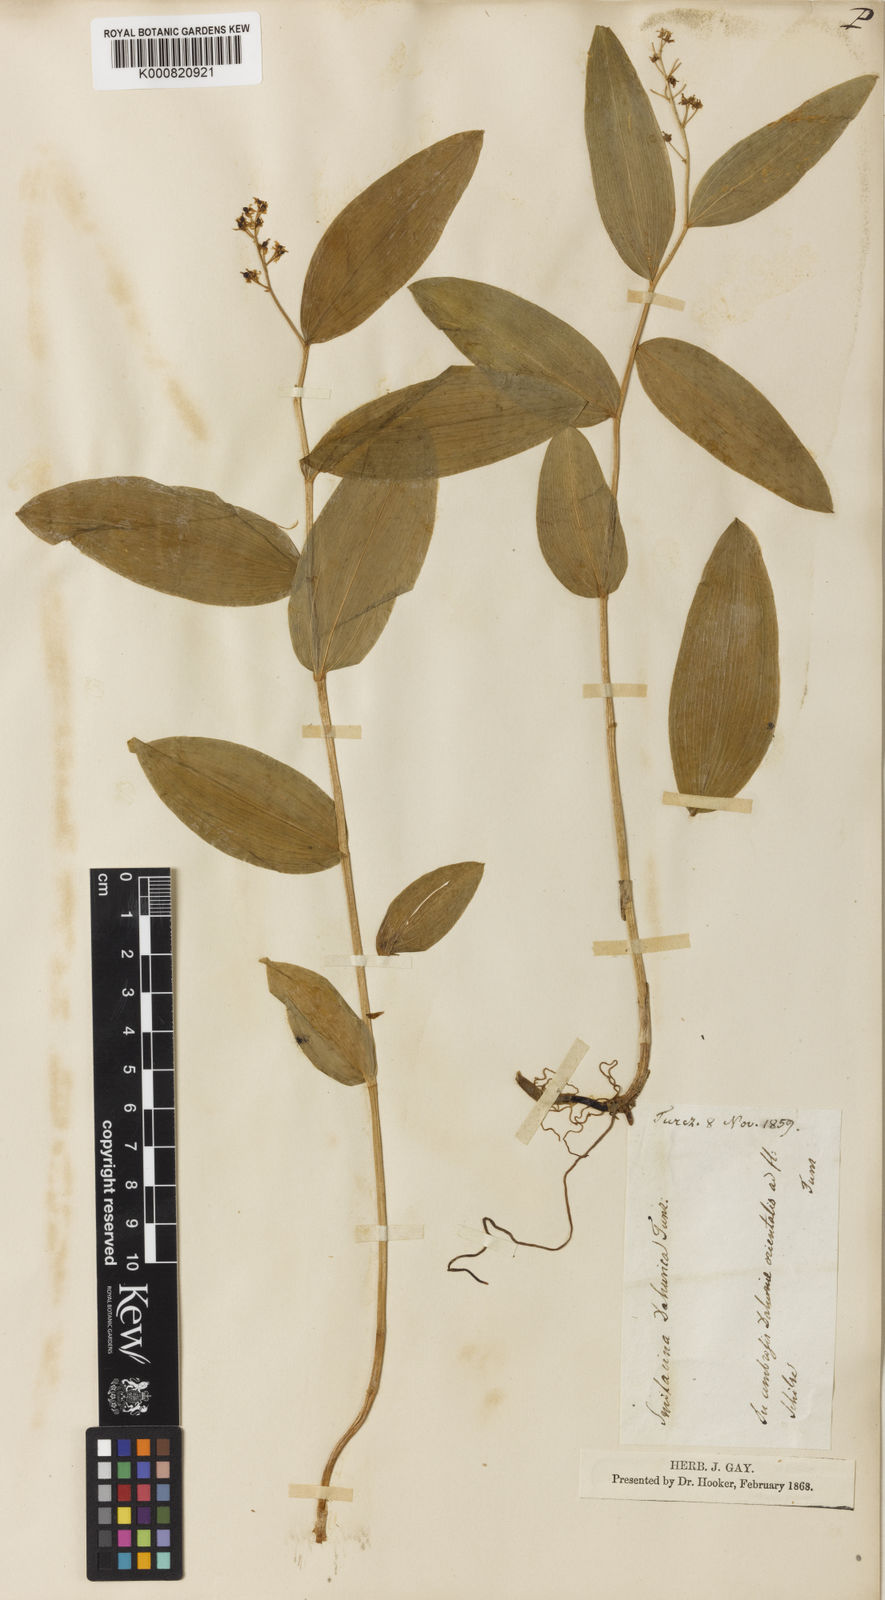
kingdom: Plantae
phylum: Tracheophyta
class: Liliopsida
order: Asparagales
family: Asparagaceae
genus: Maianthemum
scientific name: Maianthemum dahuricum
